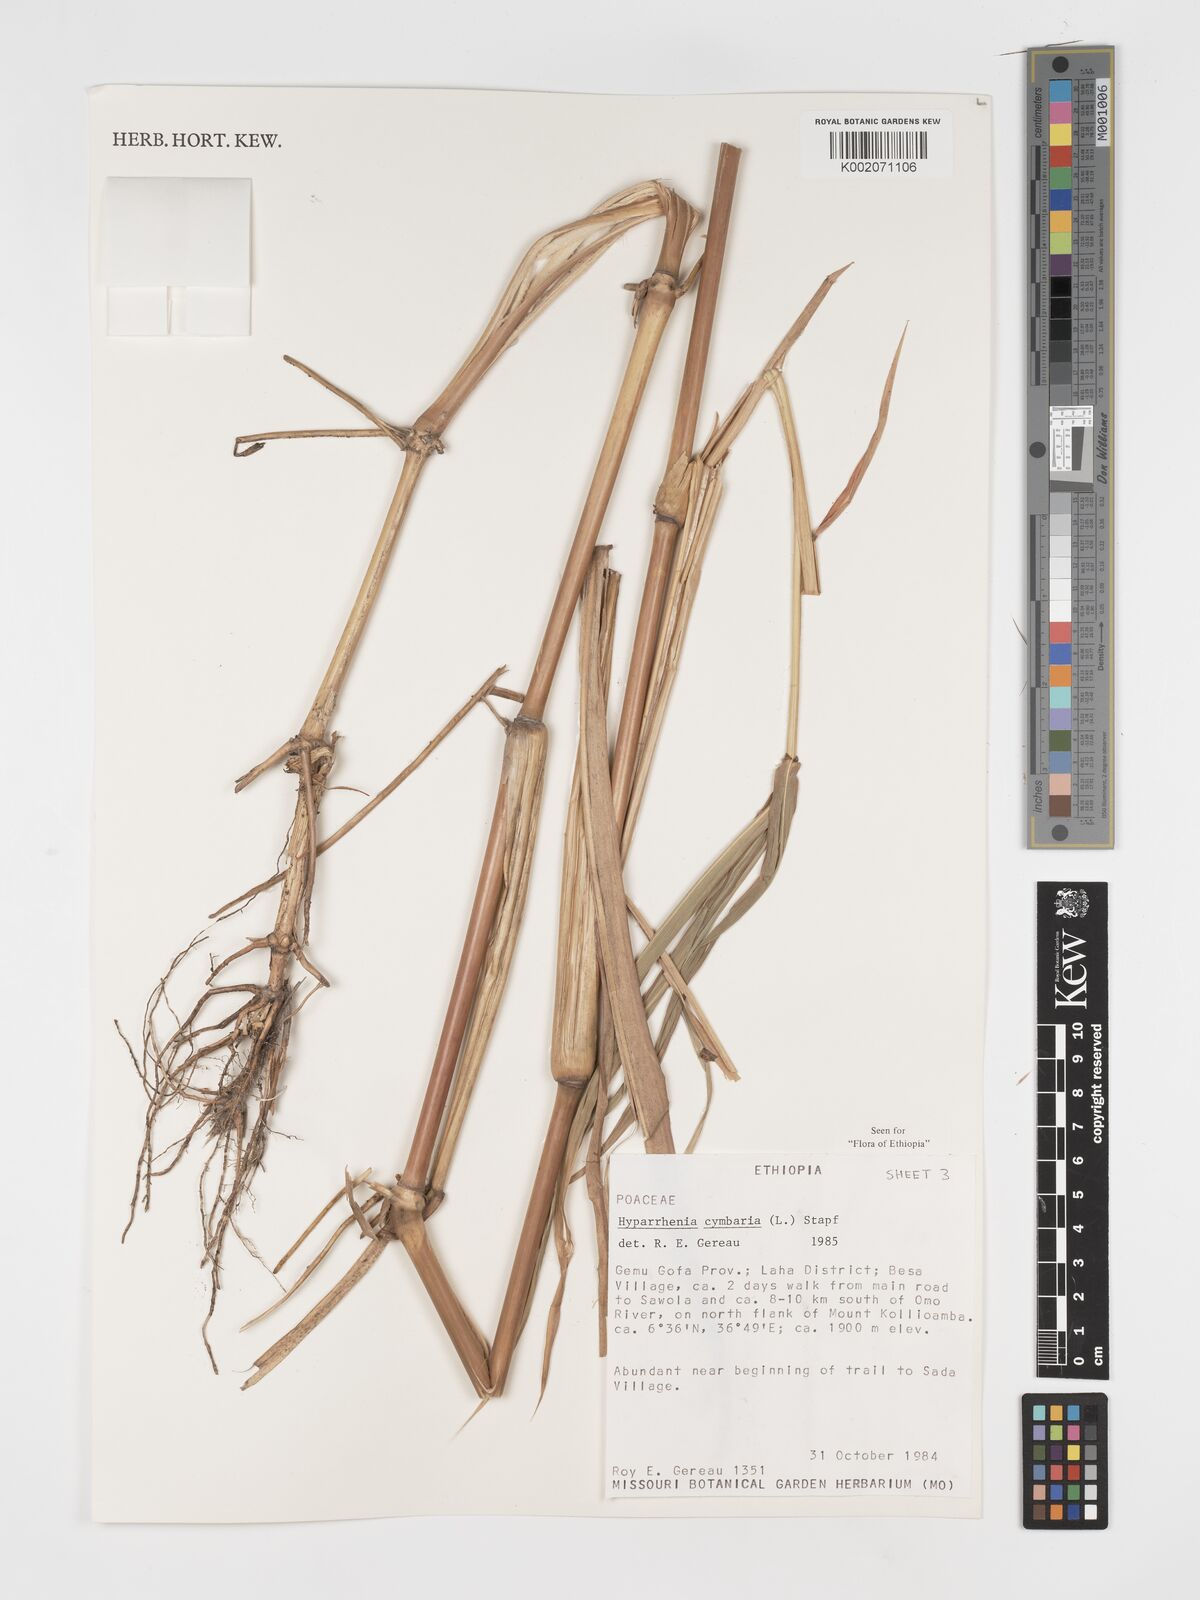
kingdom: Plantae
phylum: Tracheophyta
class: Liliopsida
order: Poales
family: Poaceae
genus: Hyparrhenia
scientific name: Hyparrhenia cymbaria
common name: Boat thatching grass
